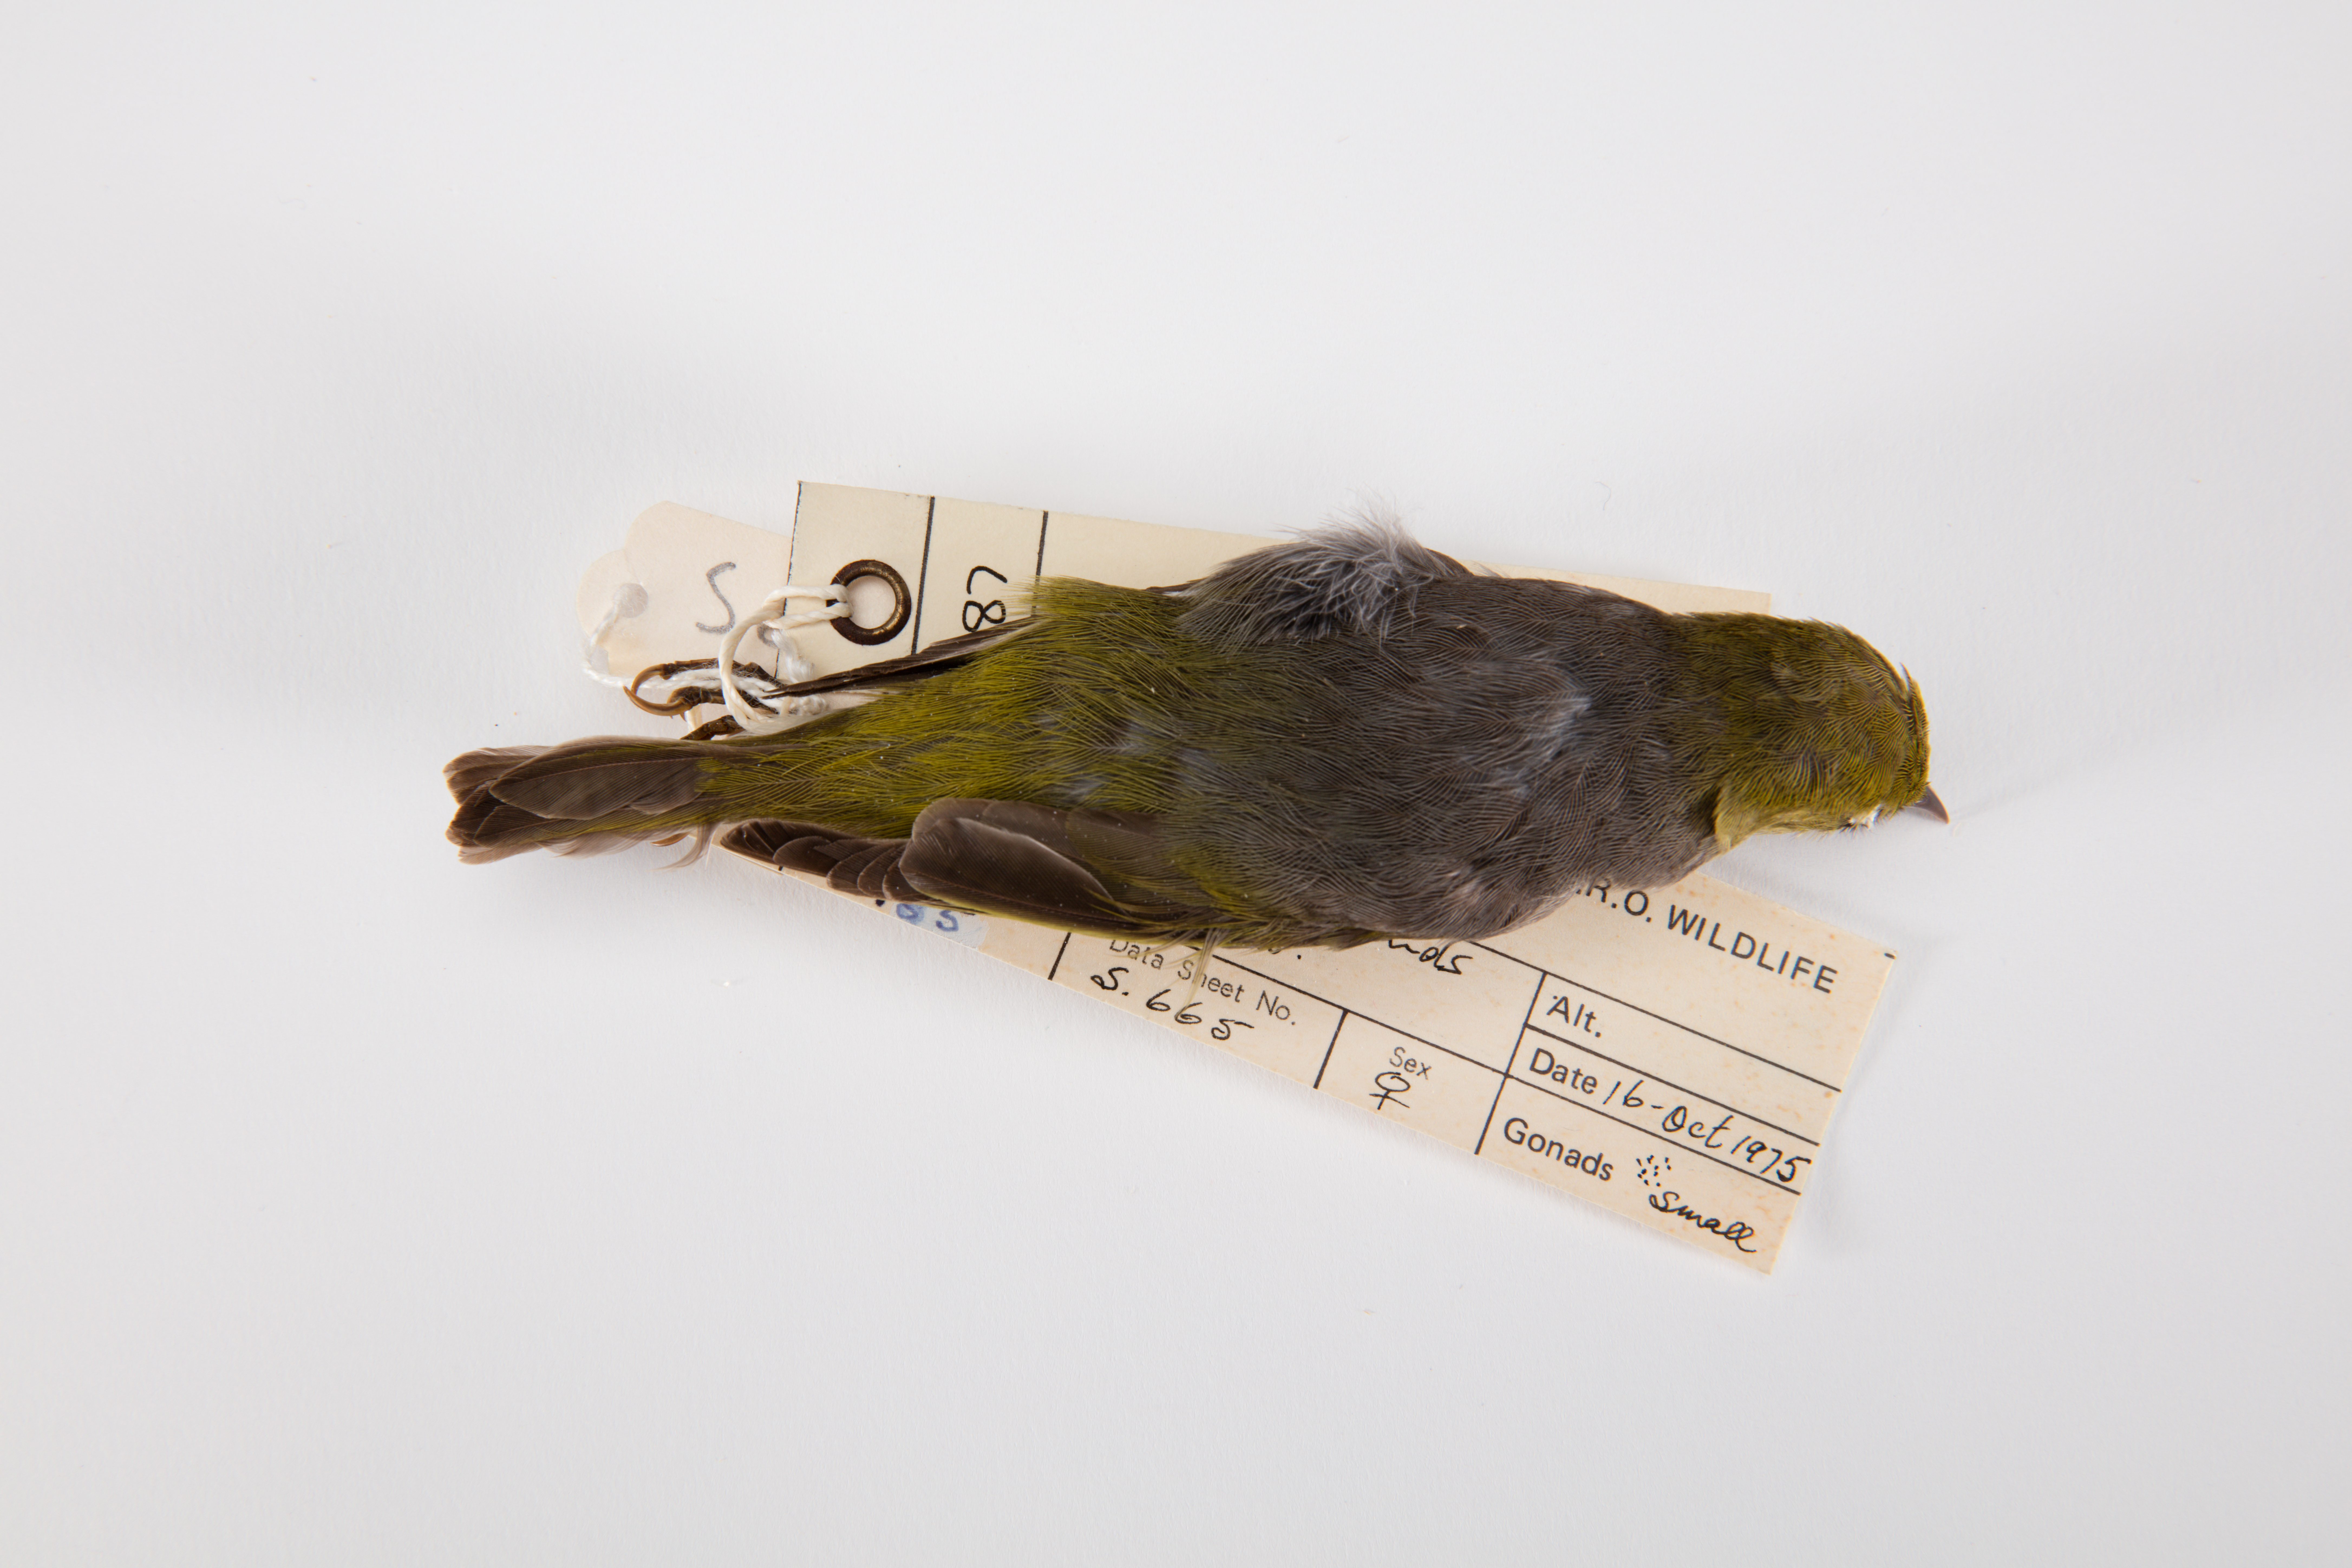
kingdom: Animalia
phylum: Chordata
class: Aves
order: Passeriformes
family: Zosteropidae
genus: Zosterops
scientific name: Zosterops lateralis
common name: Silvereye
